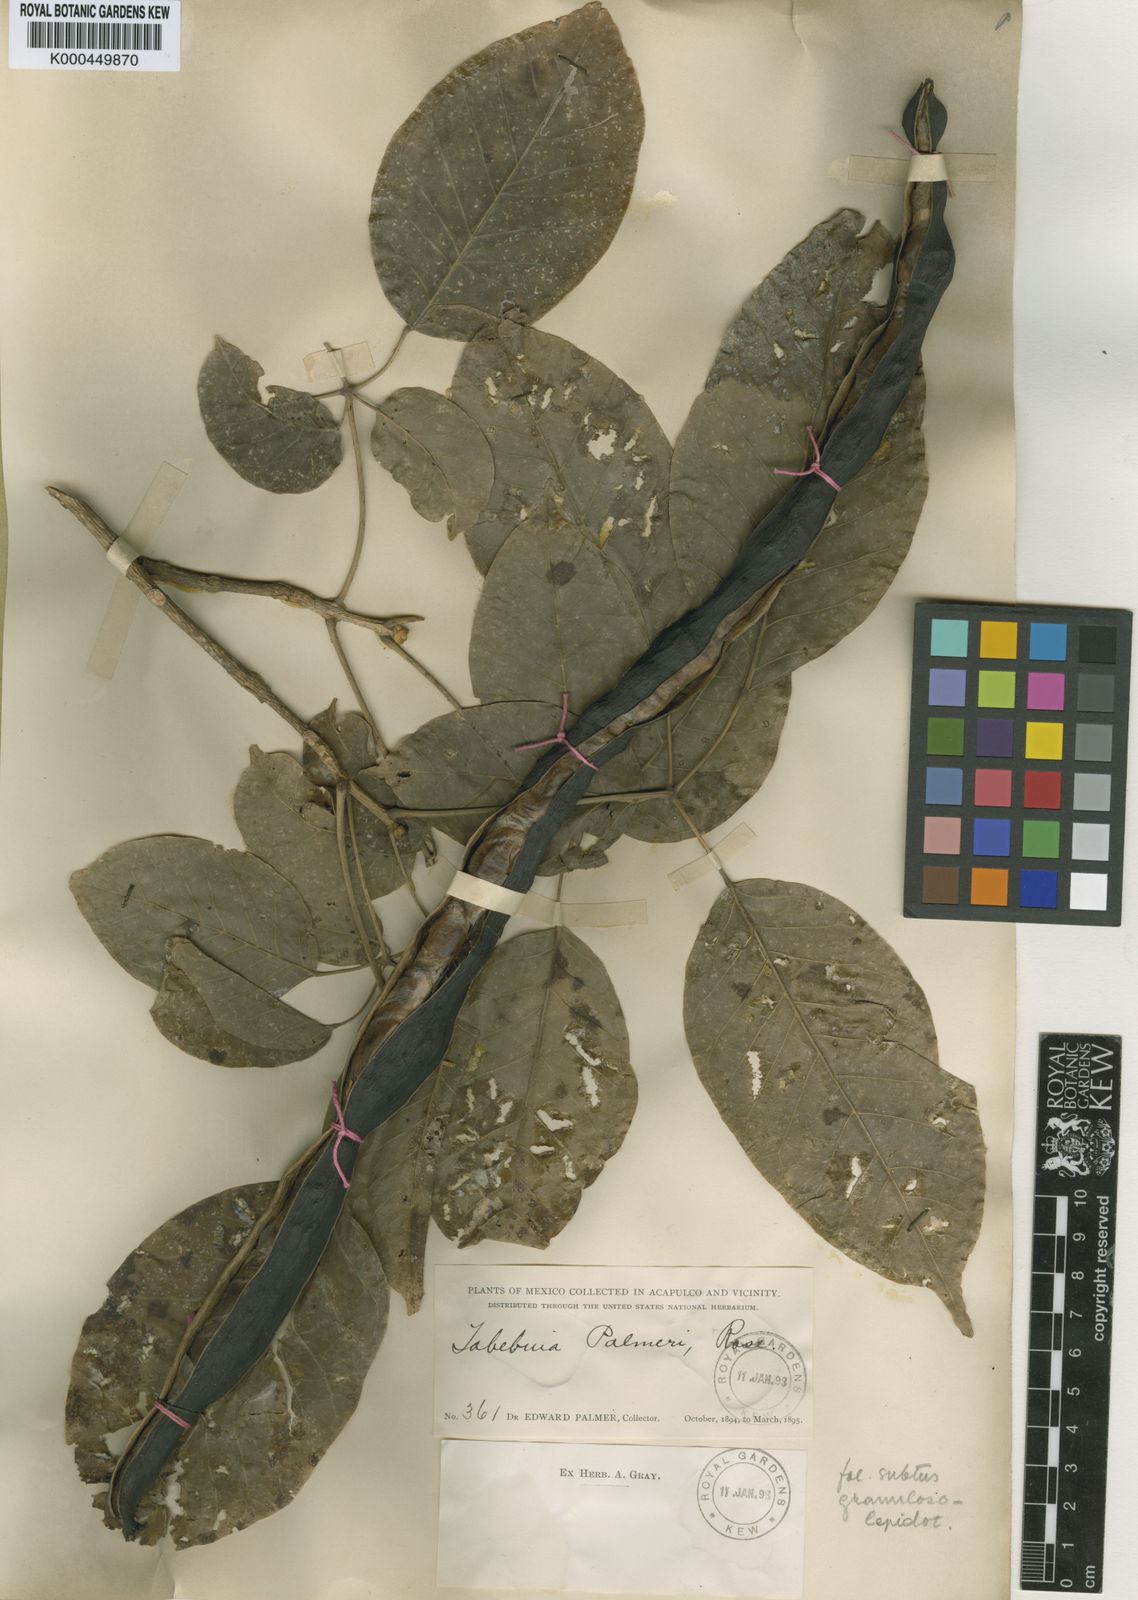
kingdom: Plantae
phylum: Tracheophyta
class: Magnoliopsida
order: Lamiales
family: Bignoniaceae
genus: Handroanthus
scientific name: Handroanthus impetiginosum
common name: Pink trumpet tree
